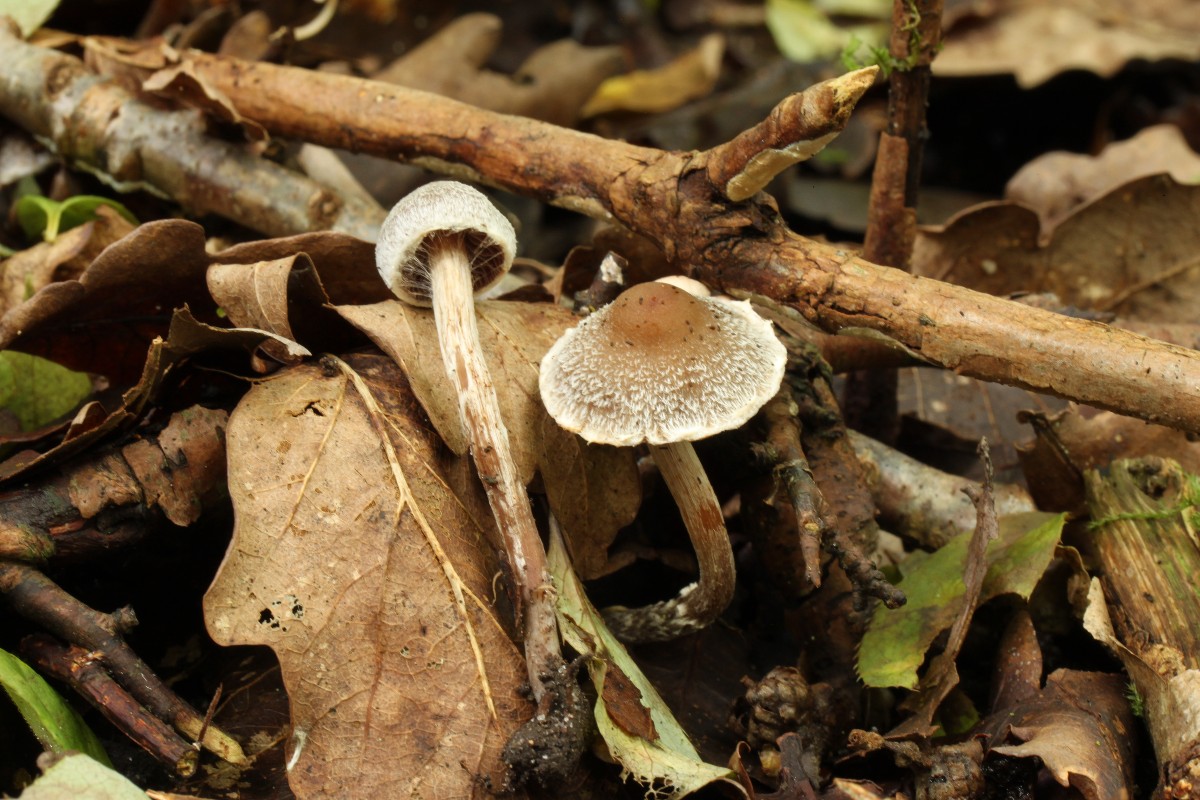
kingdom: Fungi
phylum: Basidiomycota
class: Agaricomycetes
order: Agaricales
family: Cortinariaceae
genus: Cortinarius
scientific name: Cortinarius geraniolens
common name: geranium-slørhat
